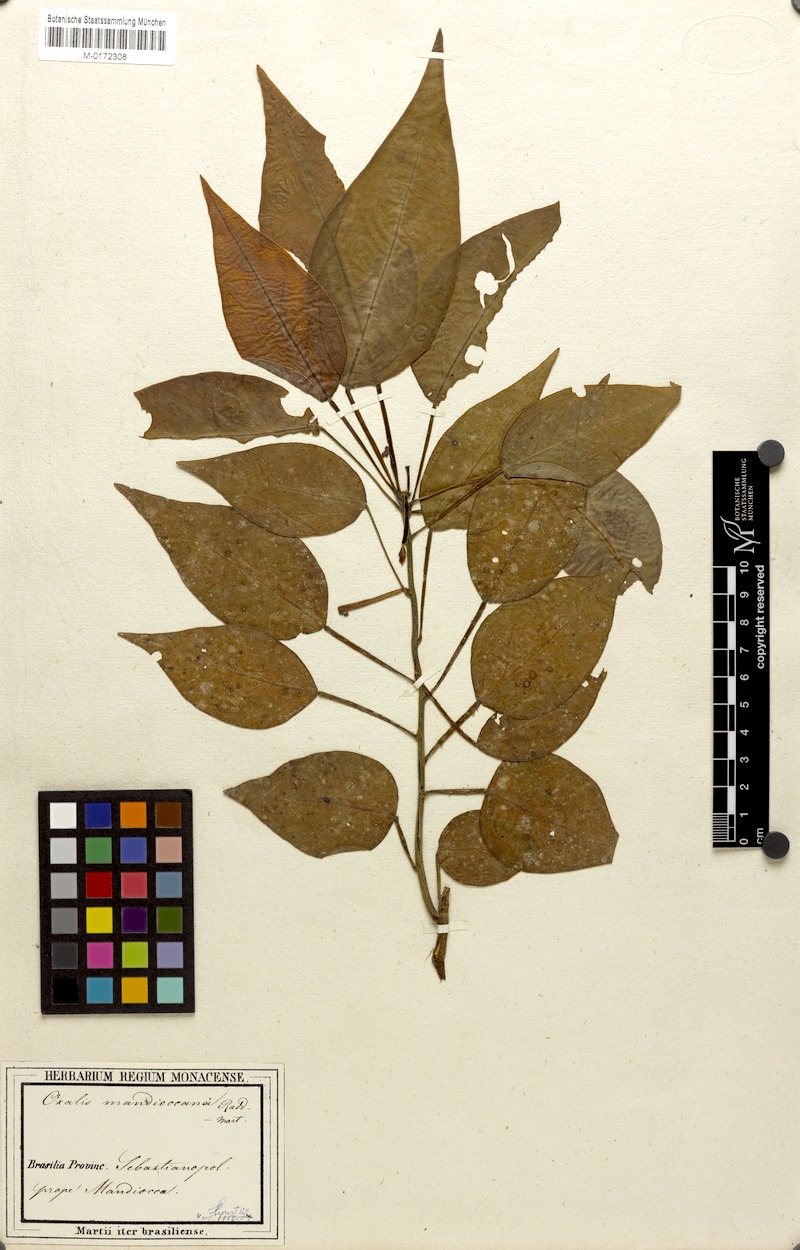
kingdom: Plantae
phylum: Tracheophyta
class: Magnoliopsida
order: Oxalidales
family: Oxalidaceae
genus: Oxalis
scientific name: Oxalis mandioccana
